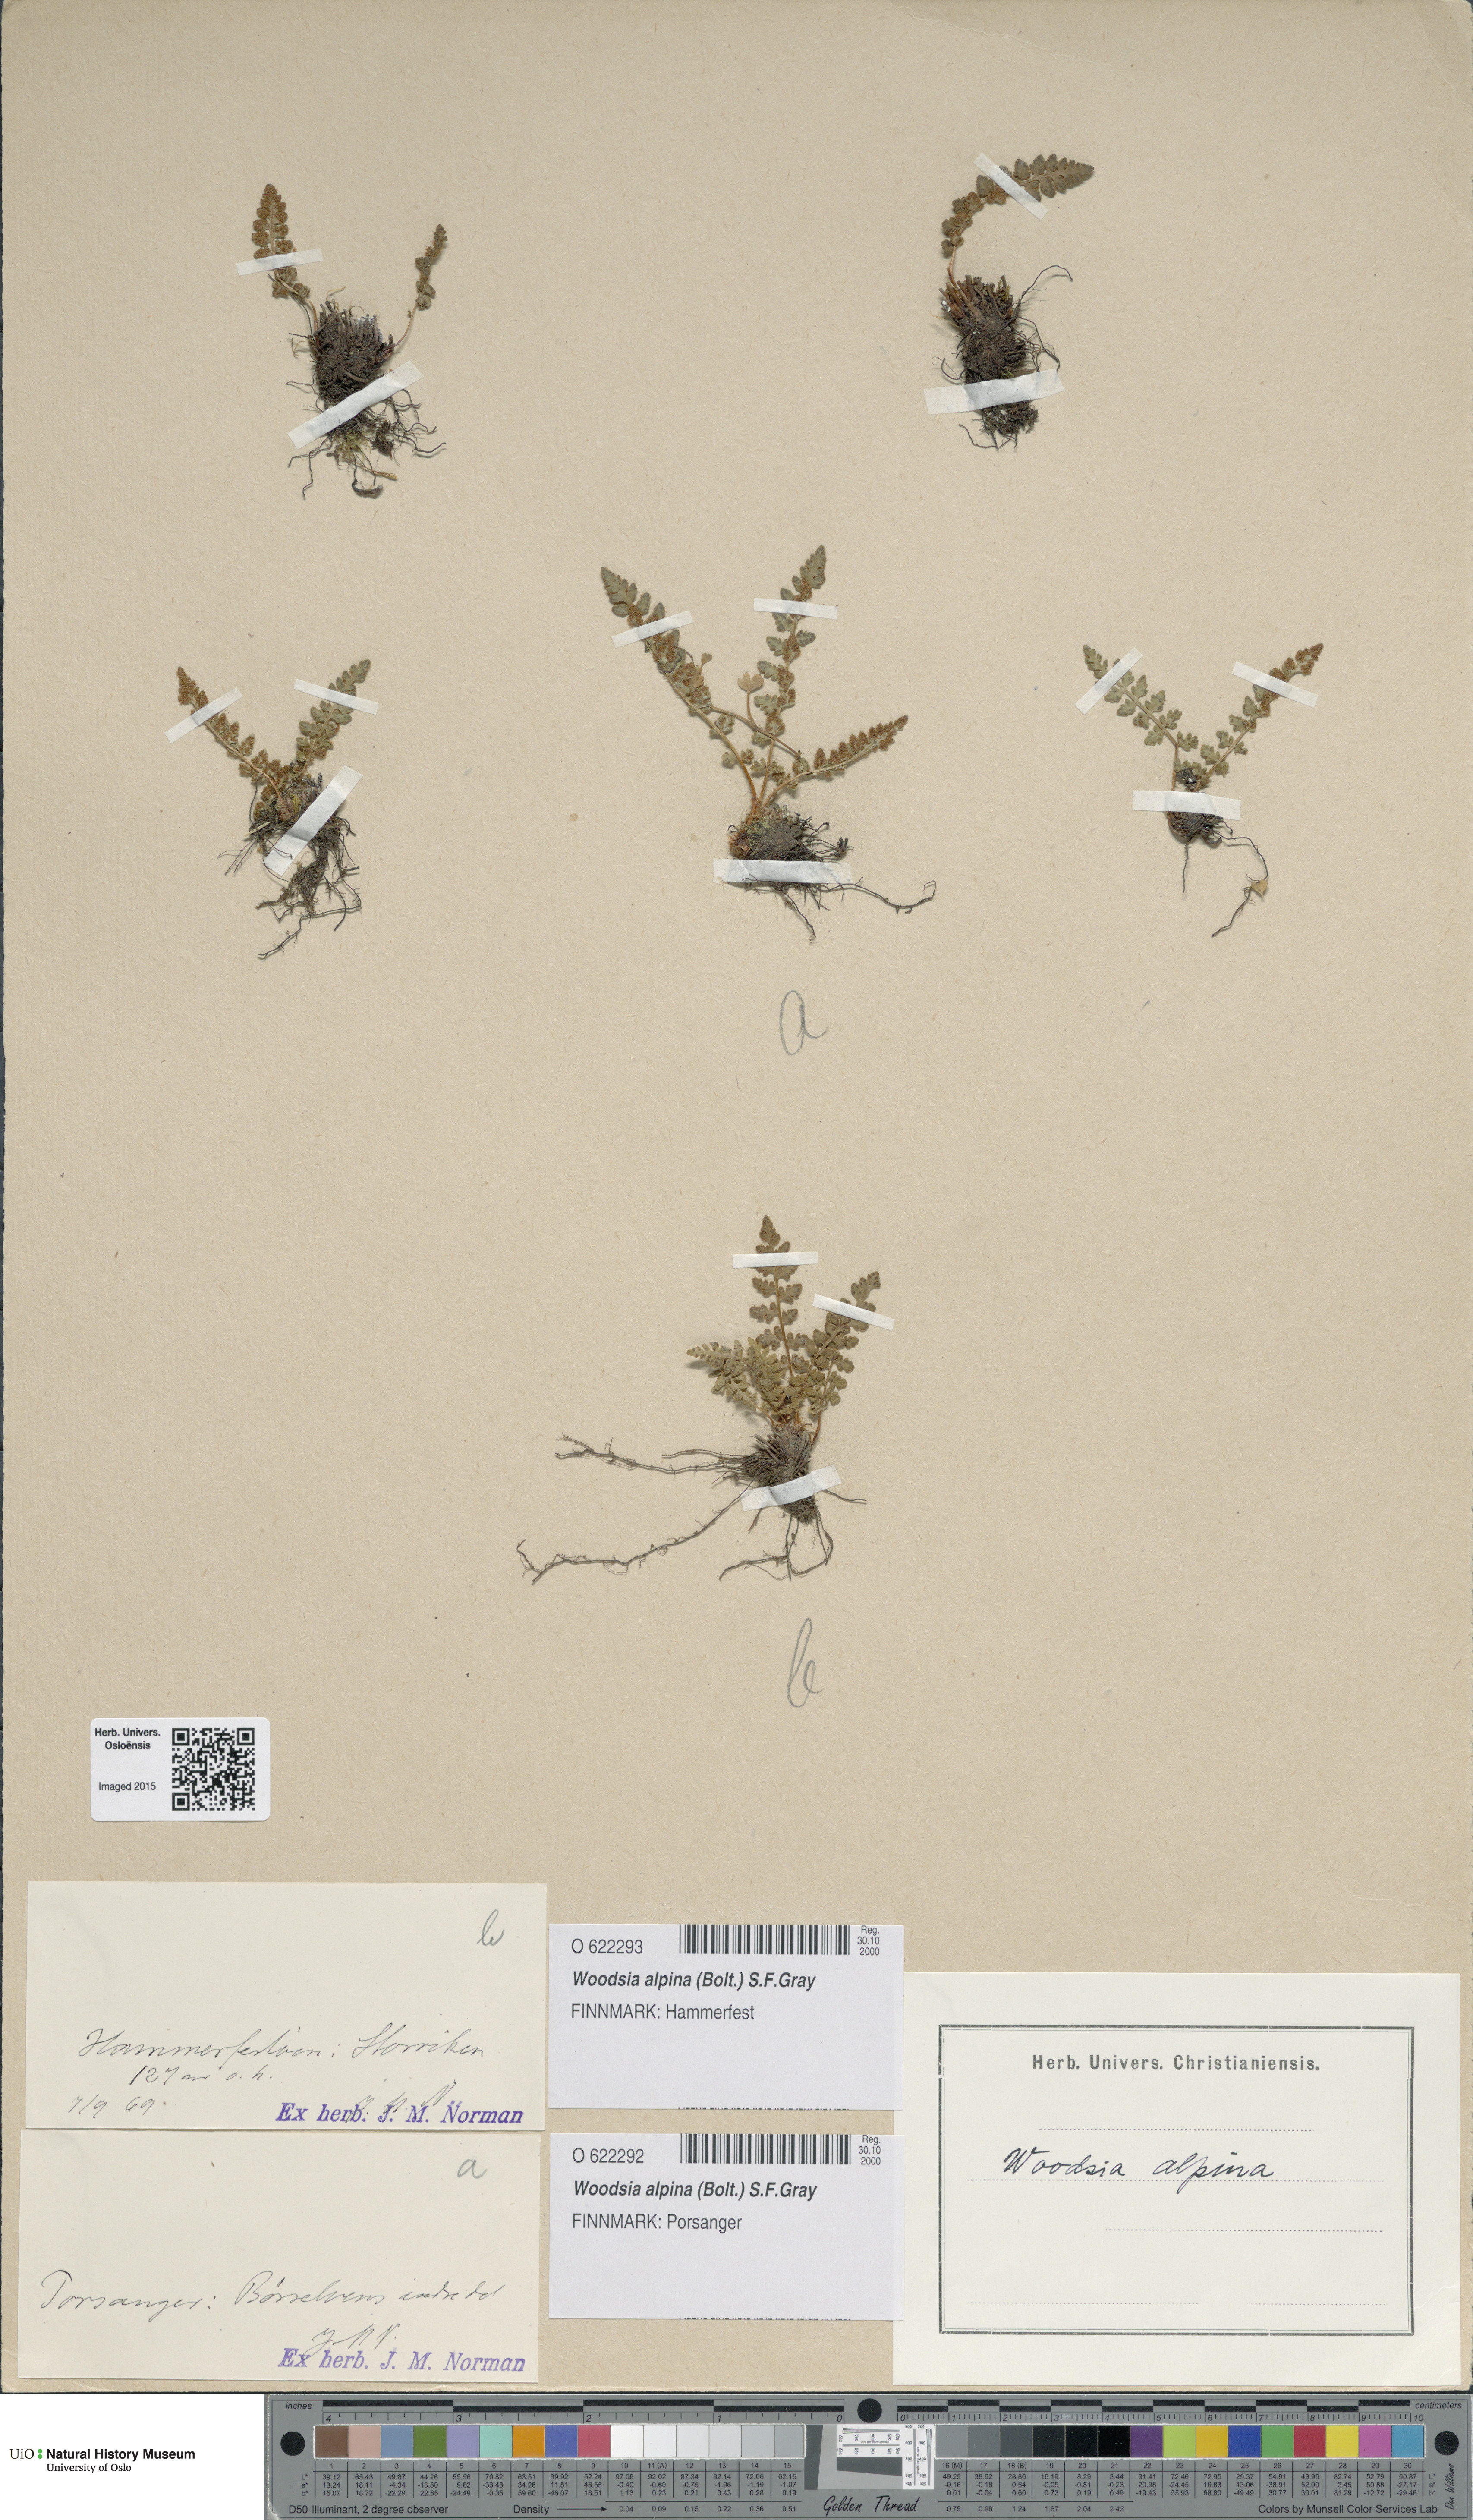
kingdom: Plantae
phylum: Tracheophyta
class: Polypodiopsida
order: Polypodiales
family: Woodsiaceae
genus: Woodsia
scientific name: Woodsia alpina
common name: Alpine woodsia
